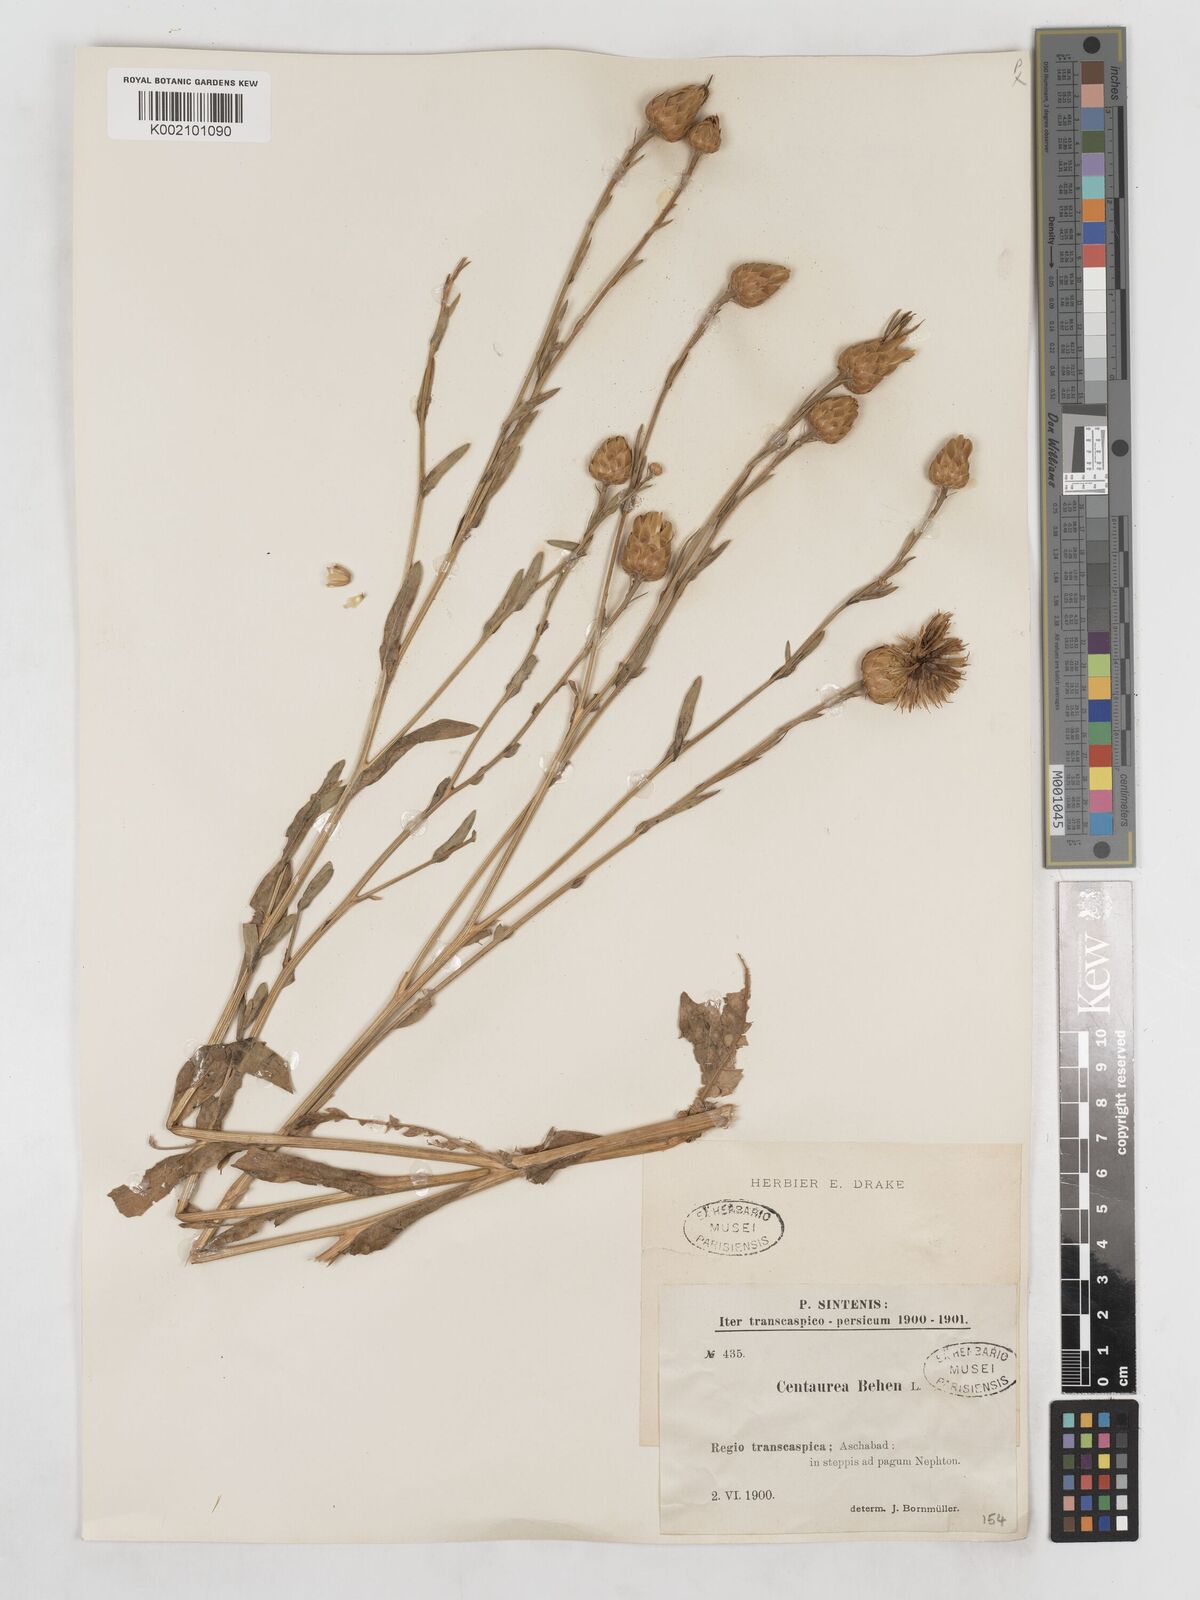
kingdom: Plantae
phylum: Tracheophyta
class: Magnoliopsida
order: Asterales
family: Asteraceae
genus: Centaurea
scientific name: Centaurea behen
